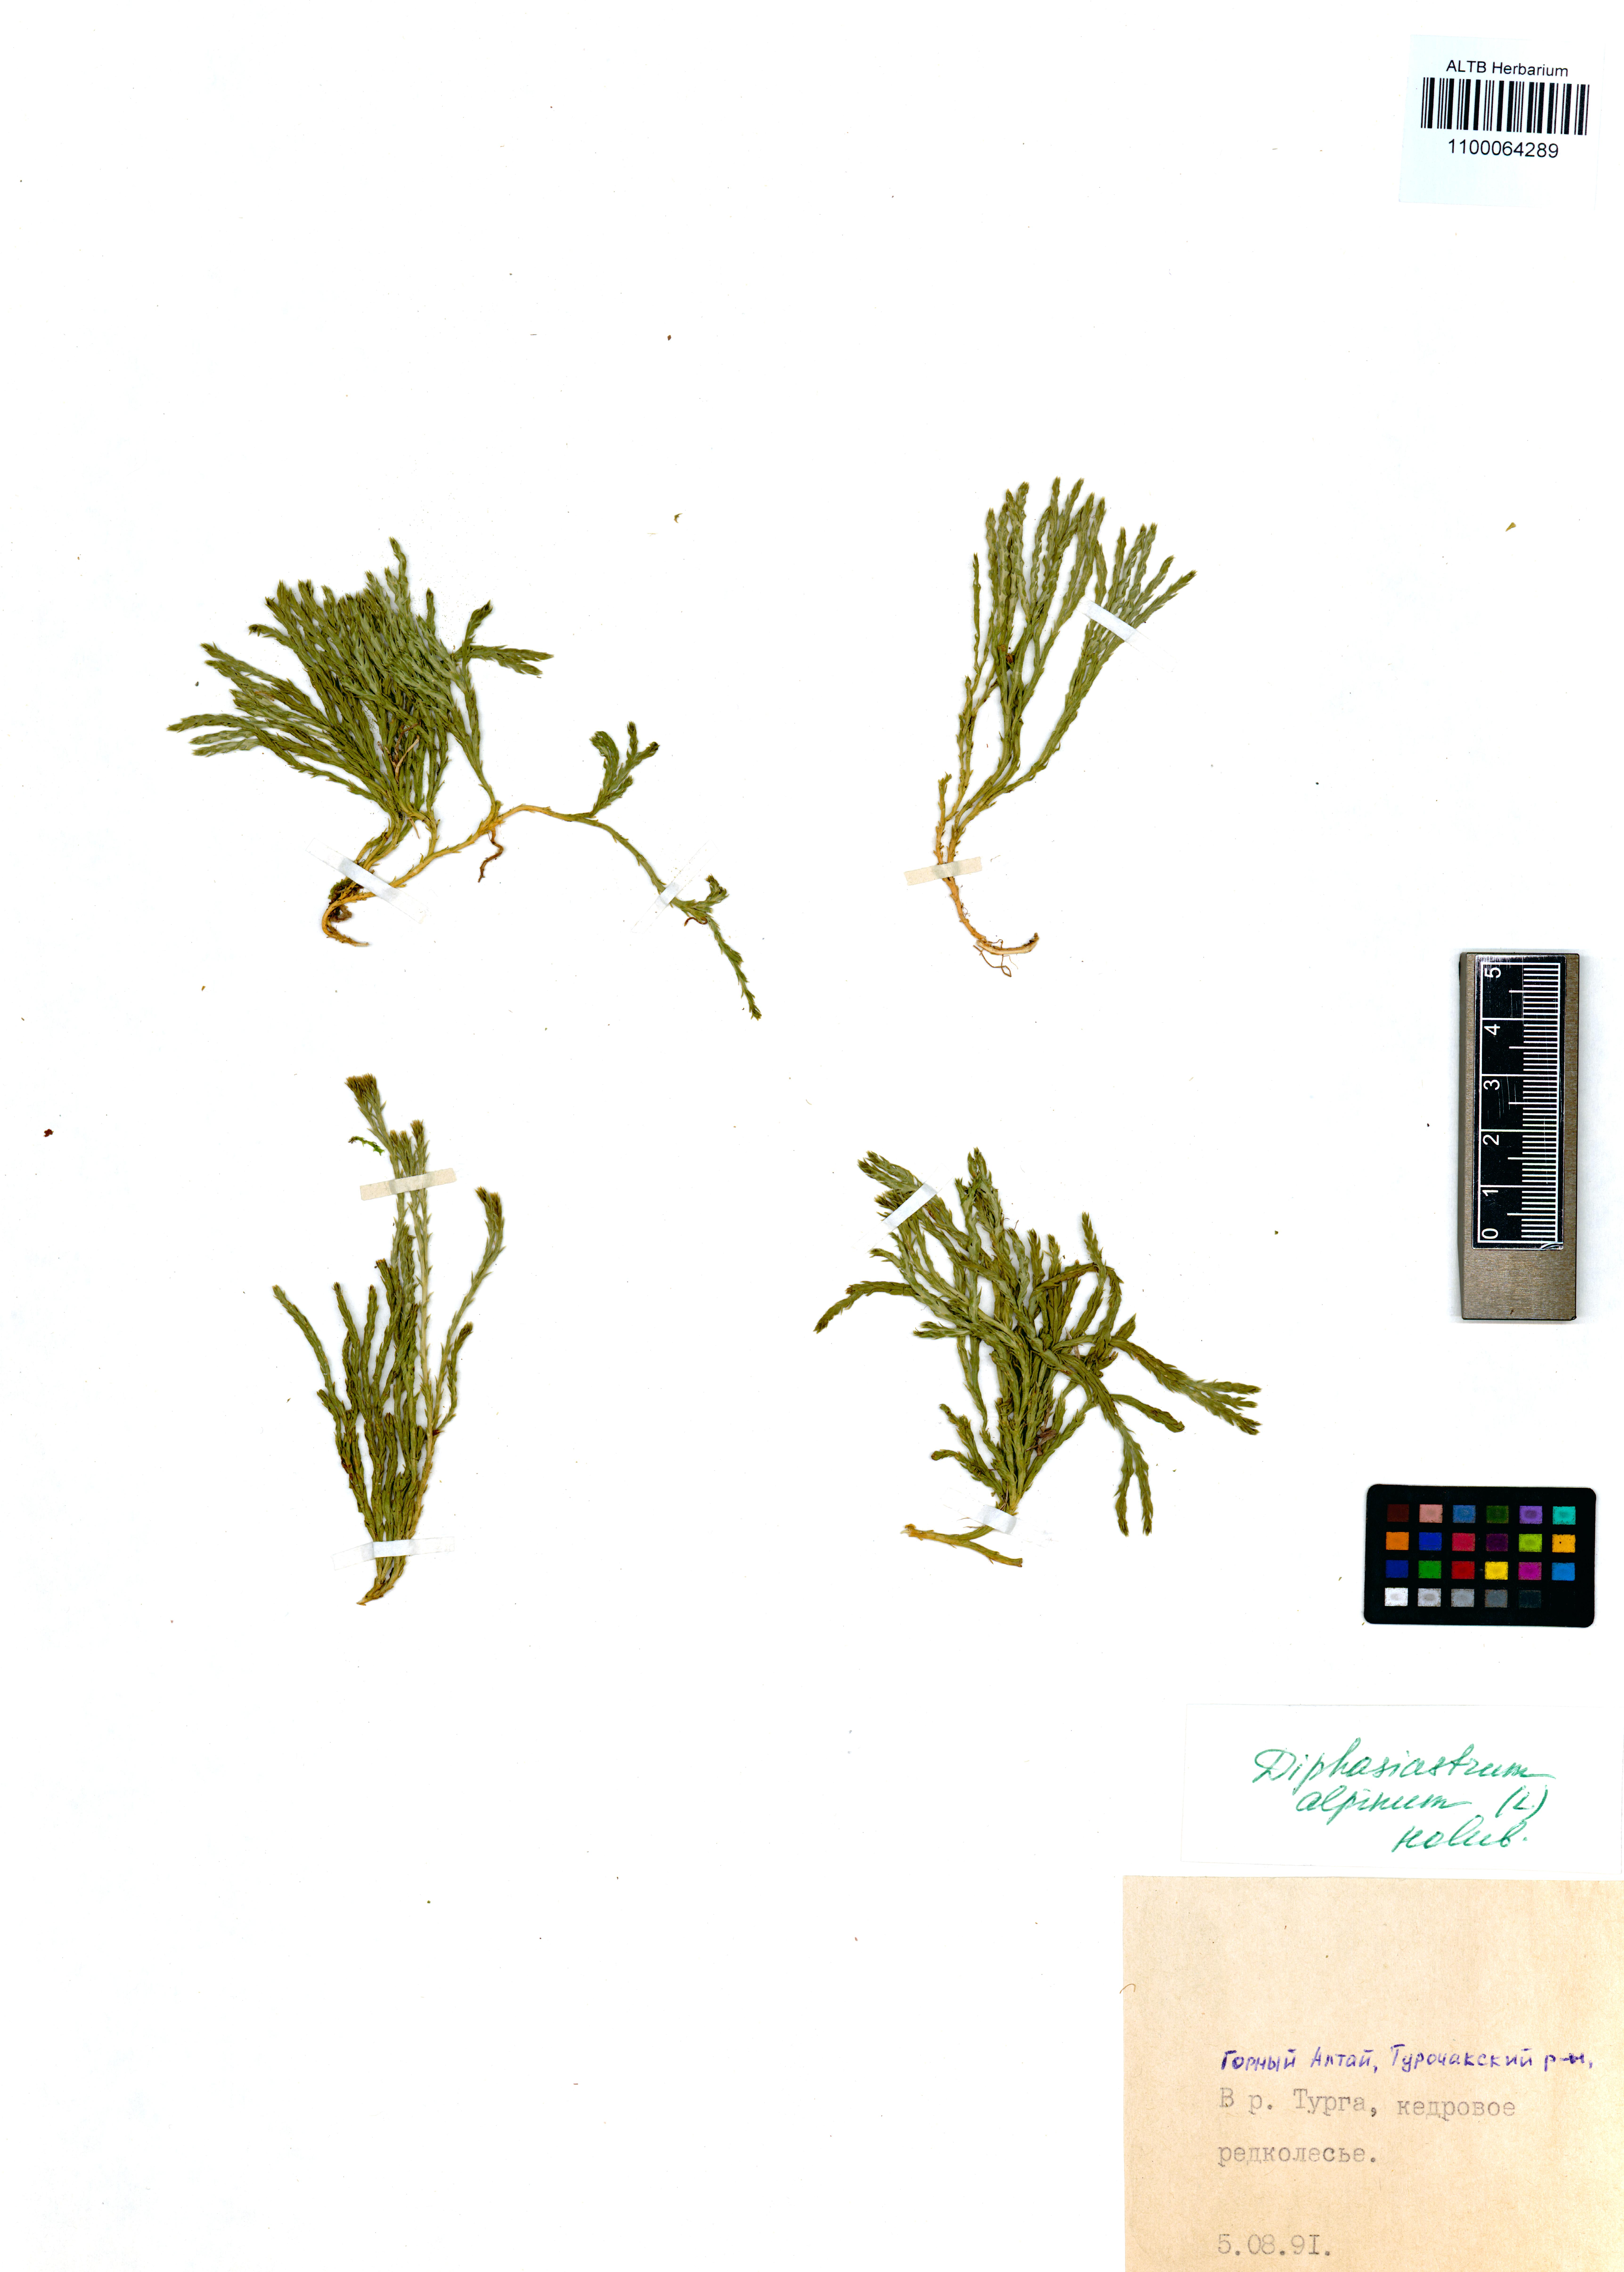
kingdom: Plantae
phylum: Tracheophyta
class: Lycopodiopsida
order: Lycopodiales
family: Lycopodiaceae
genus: Diphasiastrum
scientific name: Diphasiastrum alpinum
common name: Alpine clubmoss
